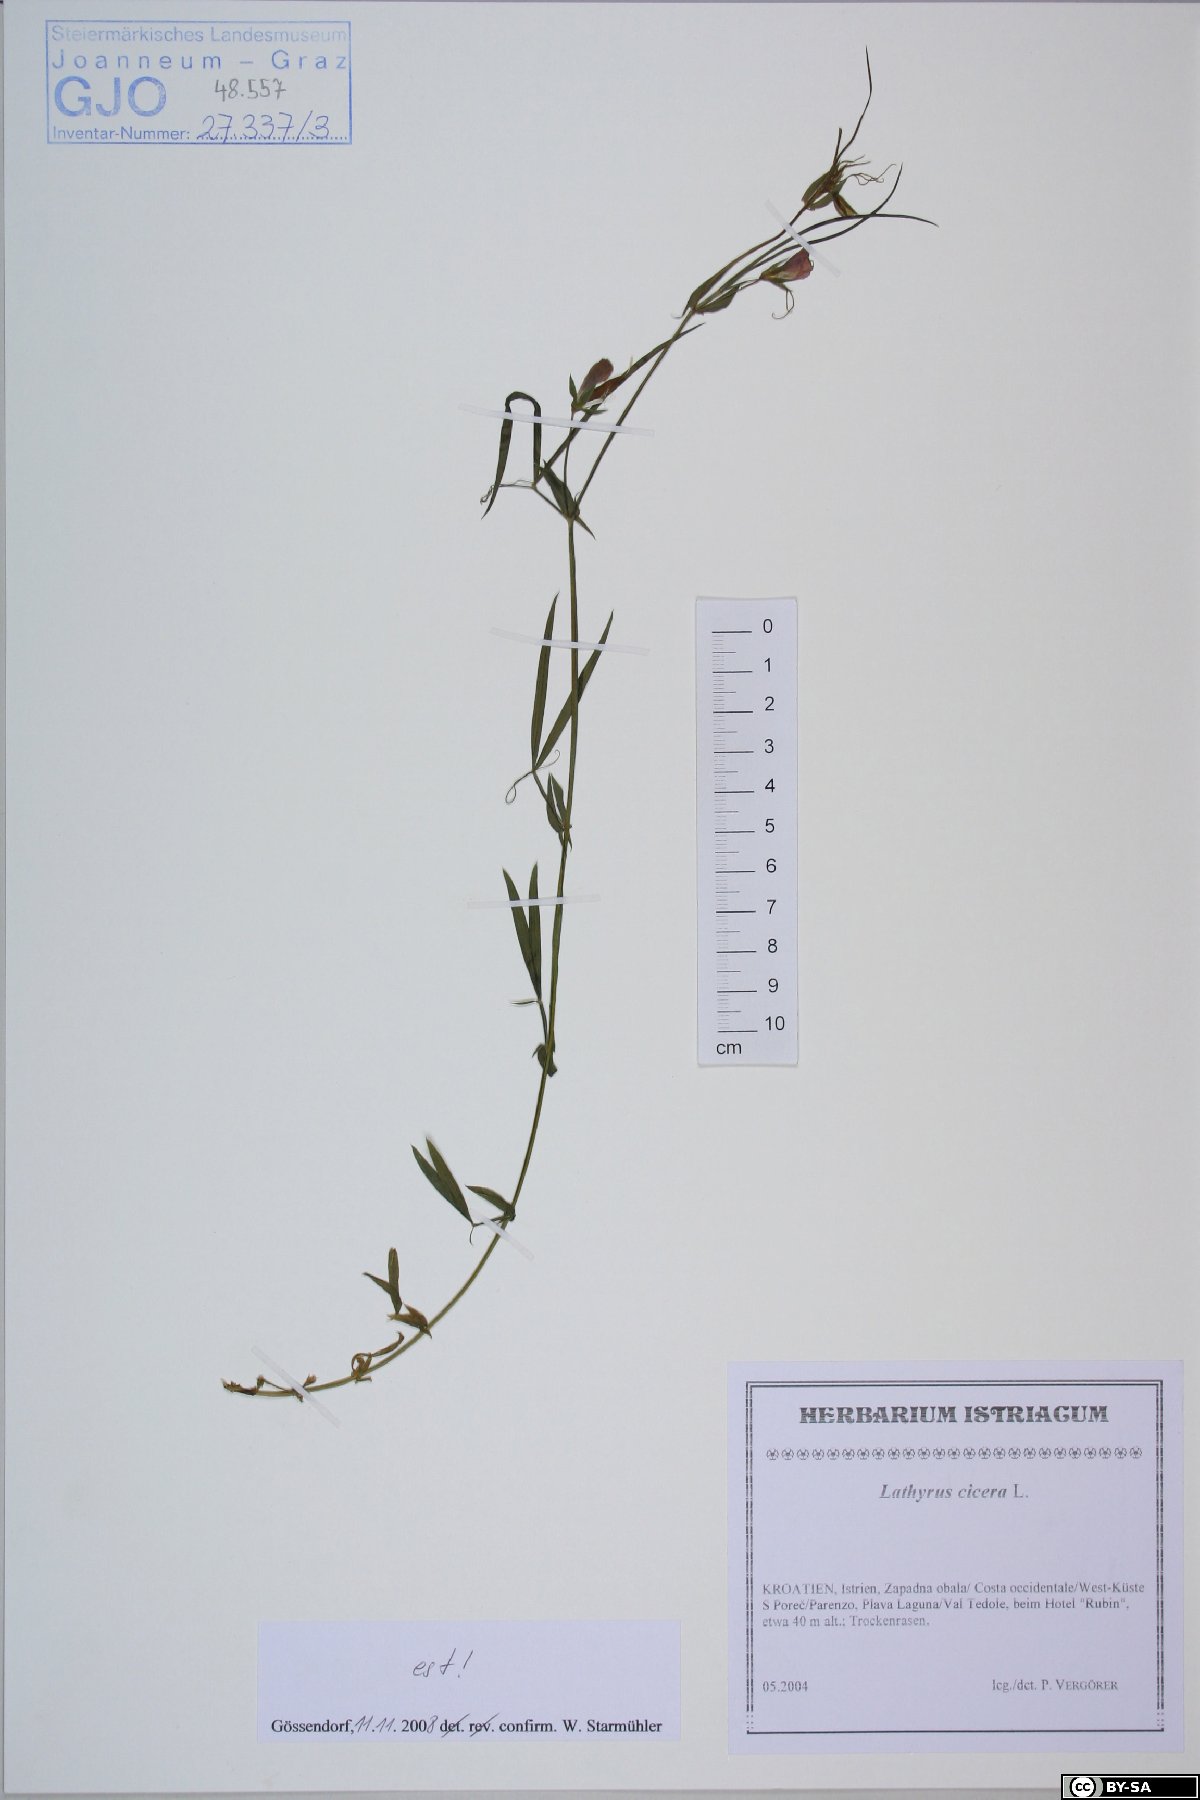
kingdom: Plantae
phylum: Tracheophyta
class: Magnoliopsida
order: Fabales
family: Fabaceae
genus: Lathyrus
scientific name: Lathyrus cicera
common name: Red vetchling
